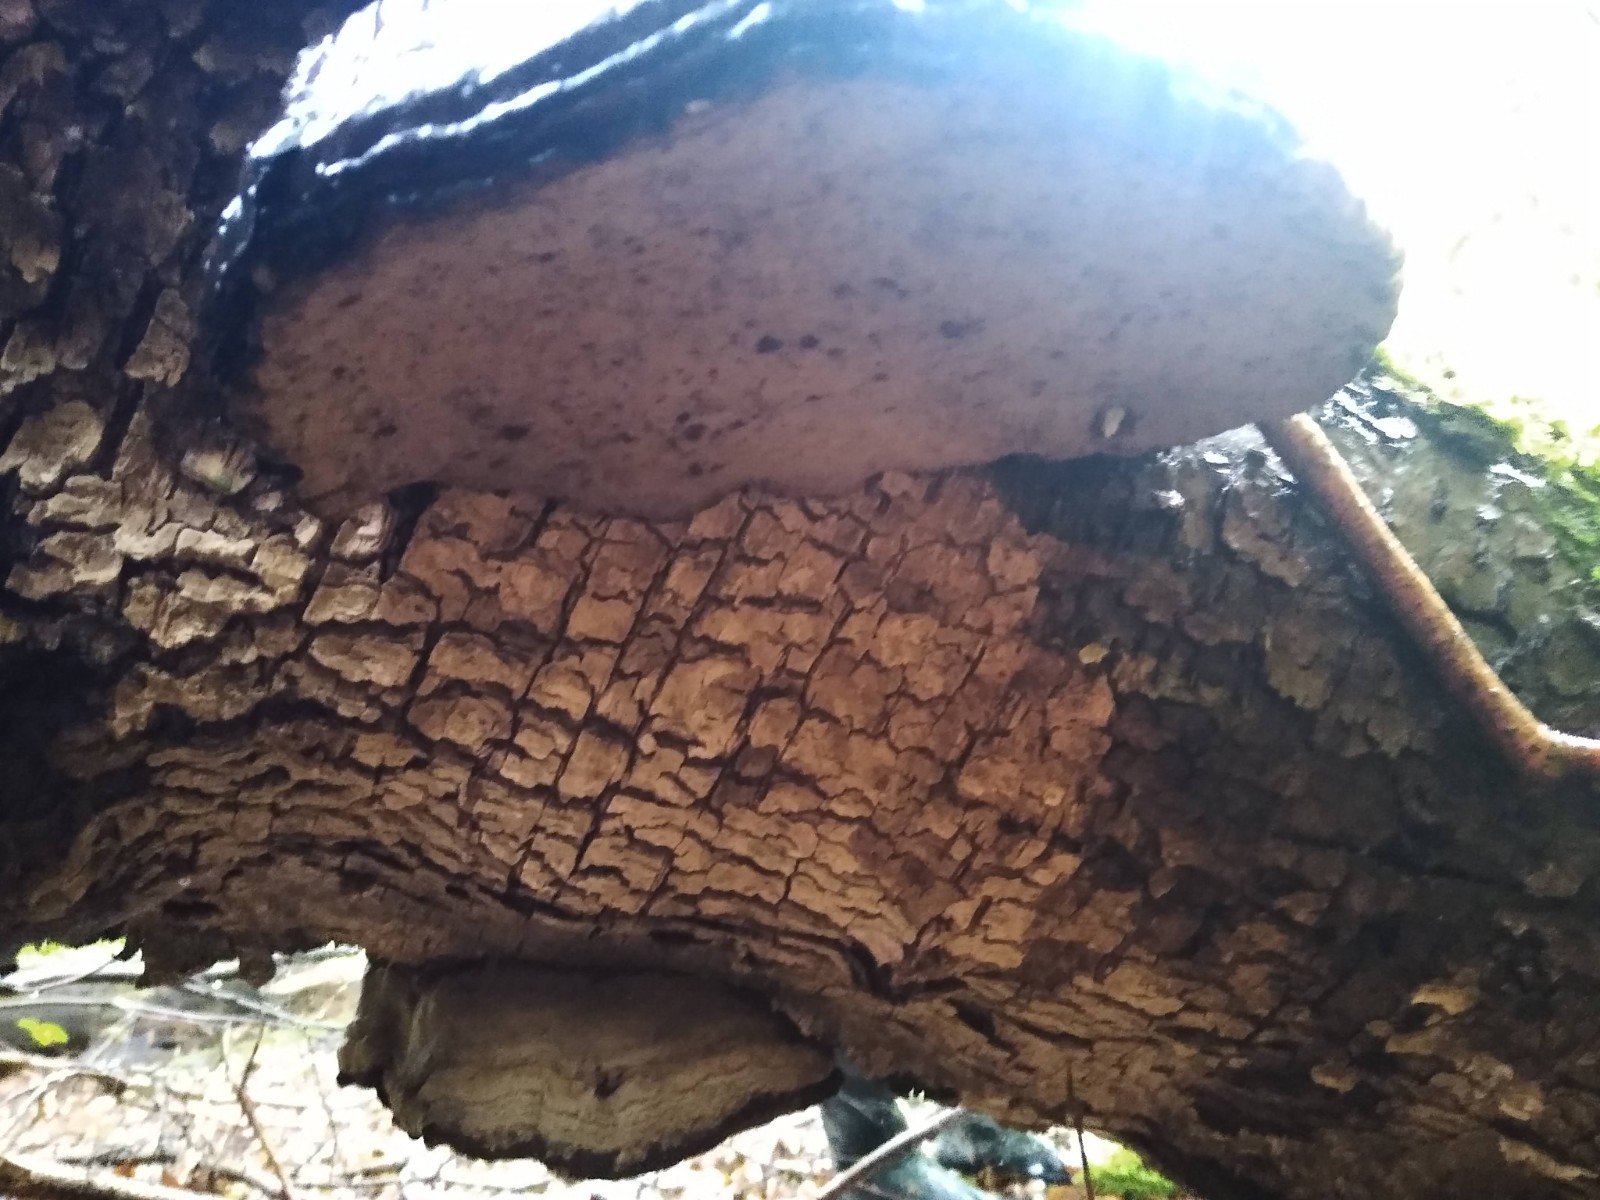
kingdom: Fungi
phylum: Basidiomycota
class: Agaricomycetes
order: Polyporales
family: Polyporaceae
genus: Fomes
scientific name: Fomes fomentarius
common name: tøndersvamp
